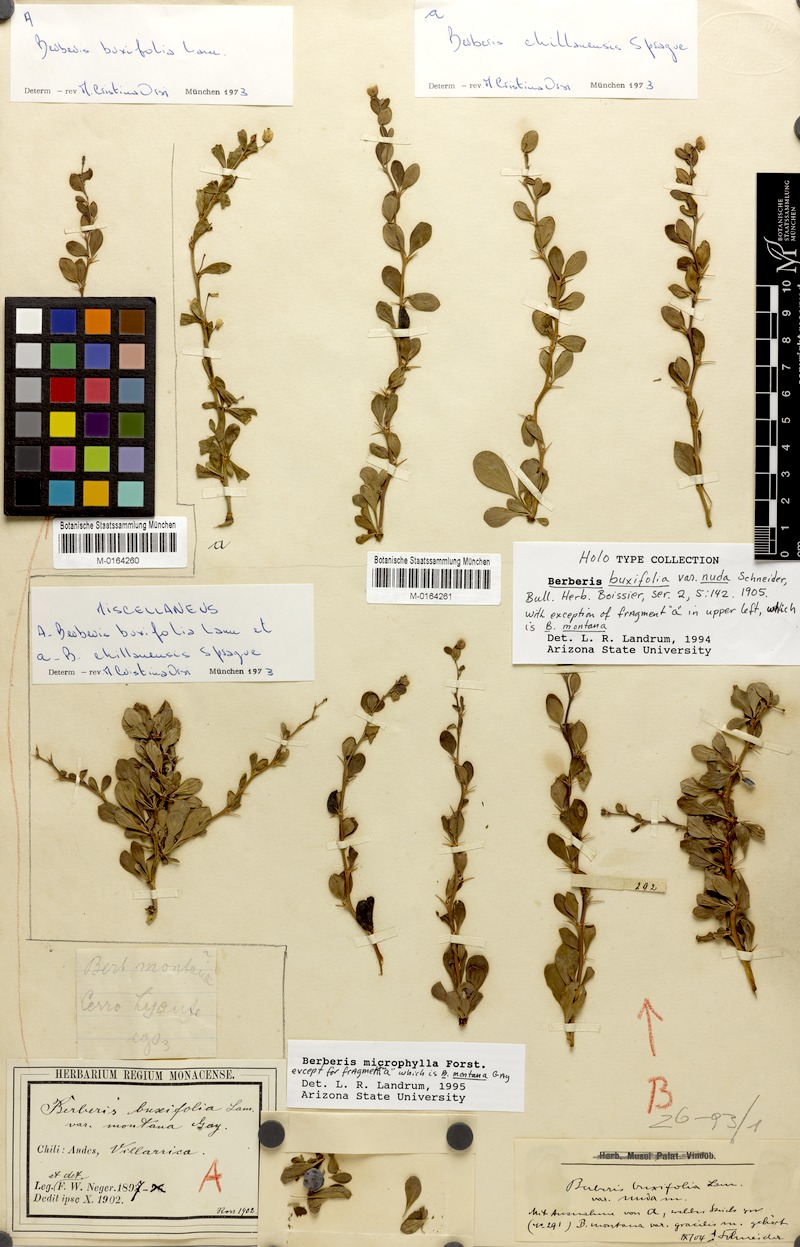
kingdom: Plantae
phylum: Tracheophyta
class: Magnoliopsida
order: Ranunculales
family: Berberidaceae
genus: Berberis
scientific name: Berberis microphylla
